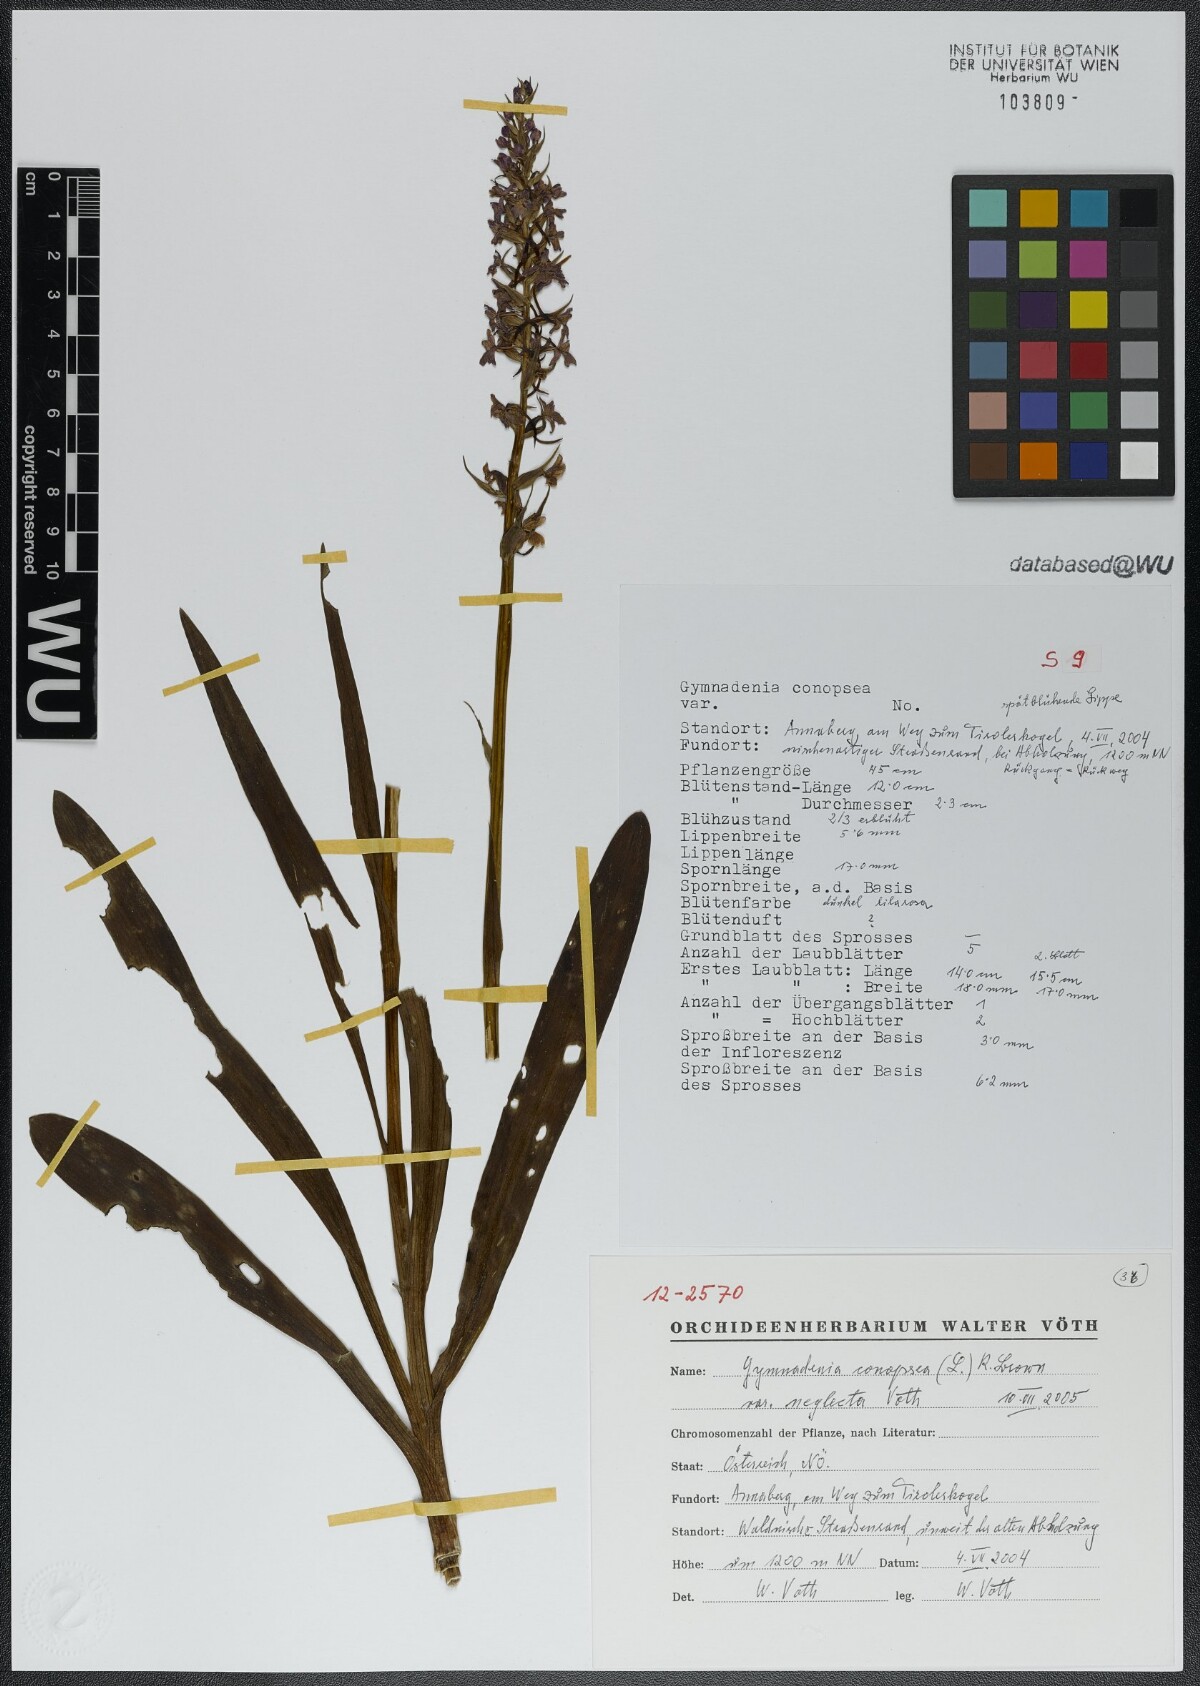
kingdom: Plantae
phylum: Tracheophyta
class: Liliopsida
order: Asparagales
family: Orchidaceae
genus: Gymnadenia
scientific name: Gymnadenia conopsea
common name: Fragrant orchid
